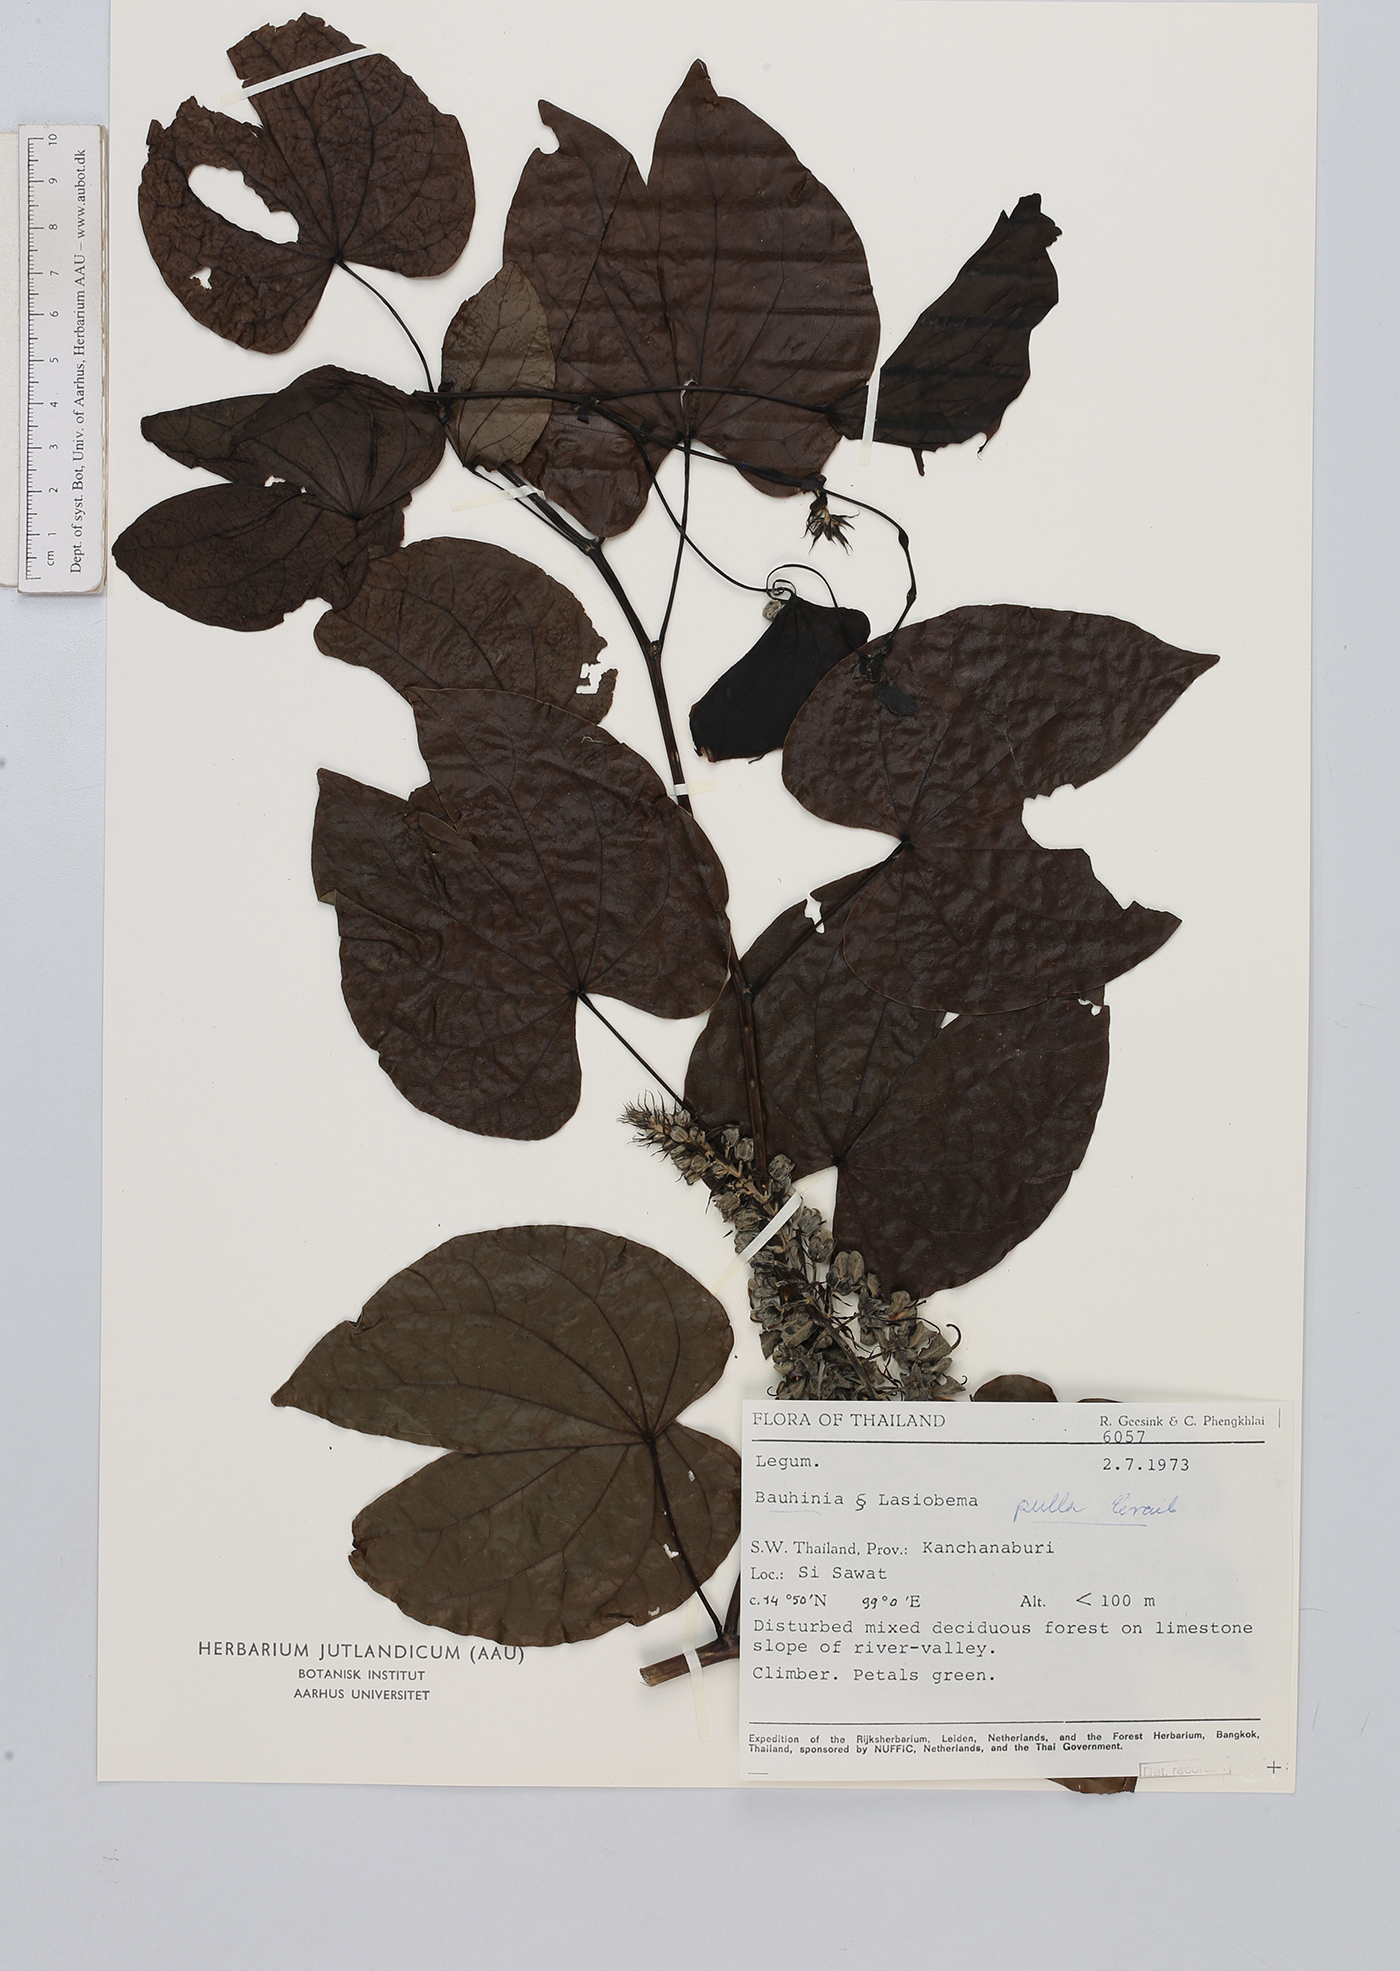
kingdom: Plantae
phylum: Tracheophyta
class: Magnoliopsida
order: Fabales
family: Fabaceae
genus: Phanera
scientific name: Phanera pulla
